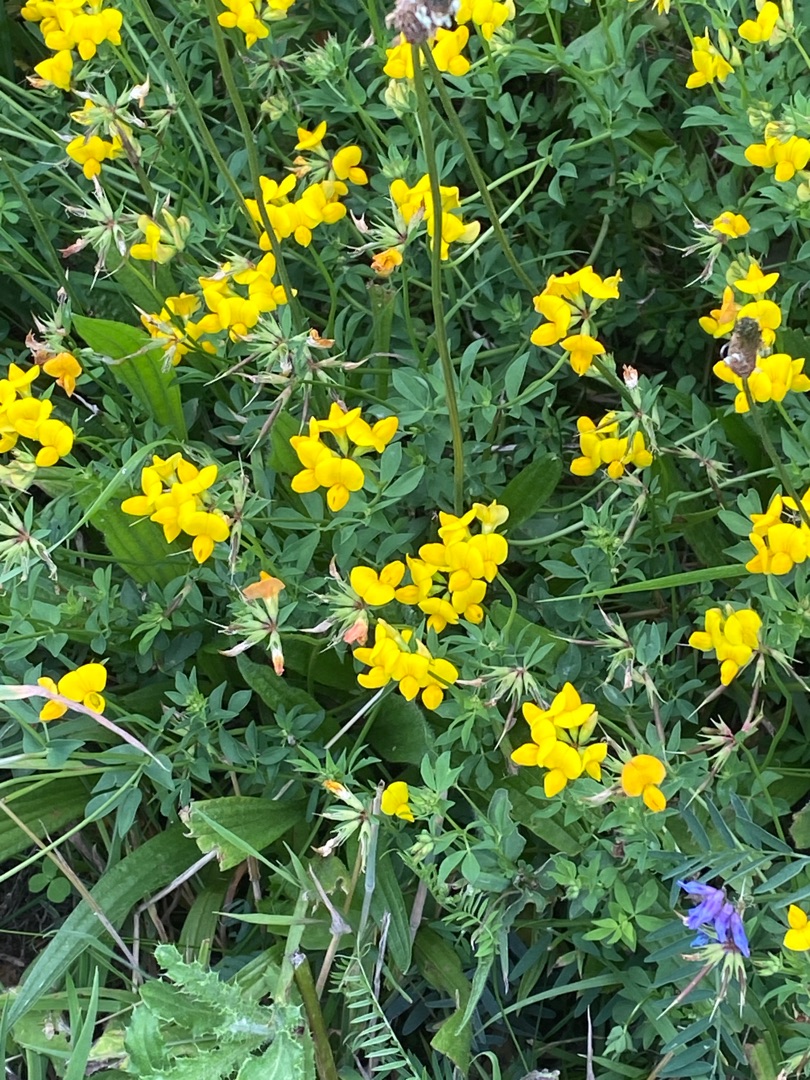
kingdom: Plantae
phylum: Tracheophyta
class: Magnoliopsida
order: Fabales
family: Fabaceae
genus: Lotus
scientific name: Lotus corniculatus
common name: Almindelig kællingetand
